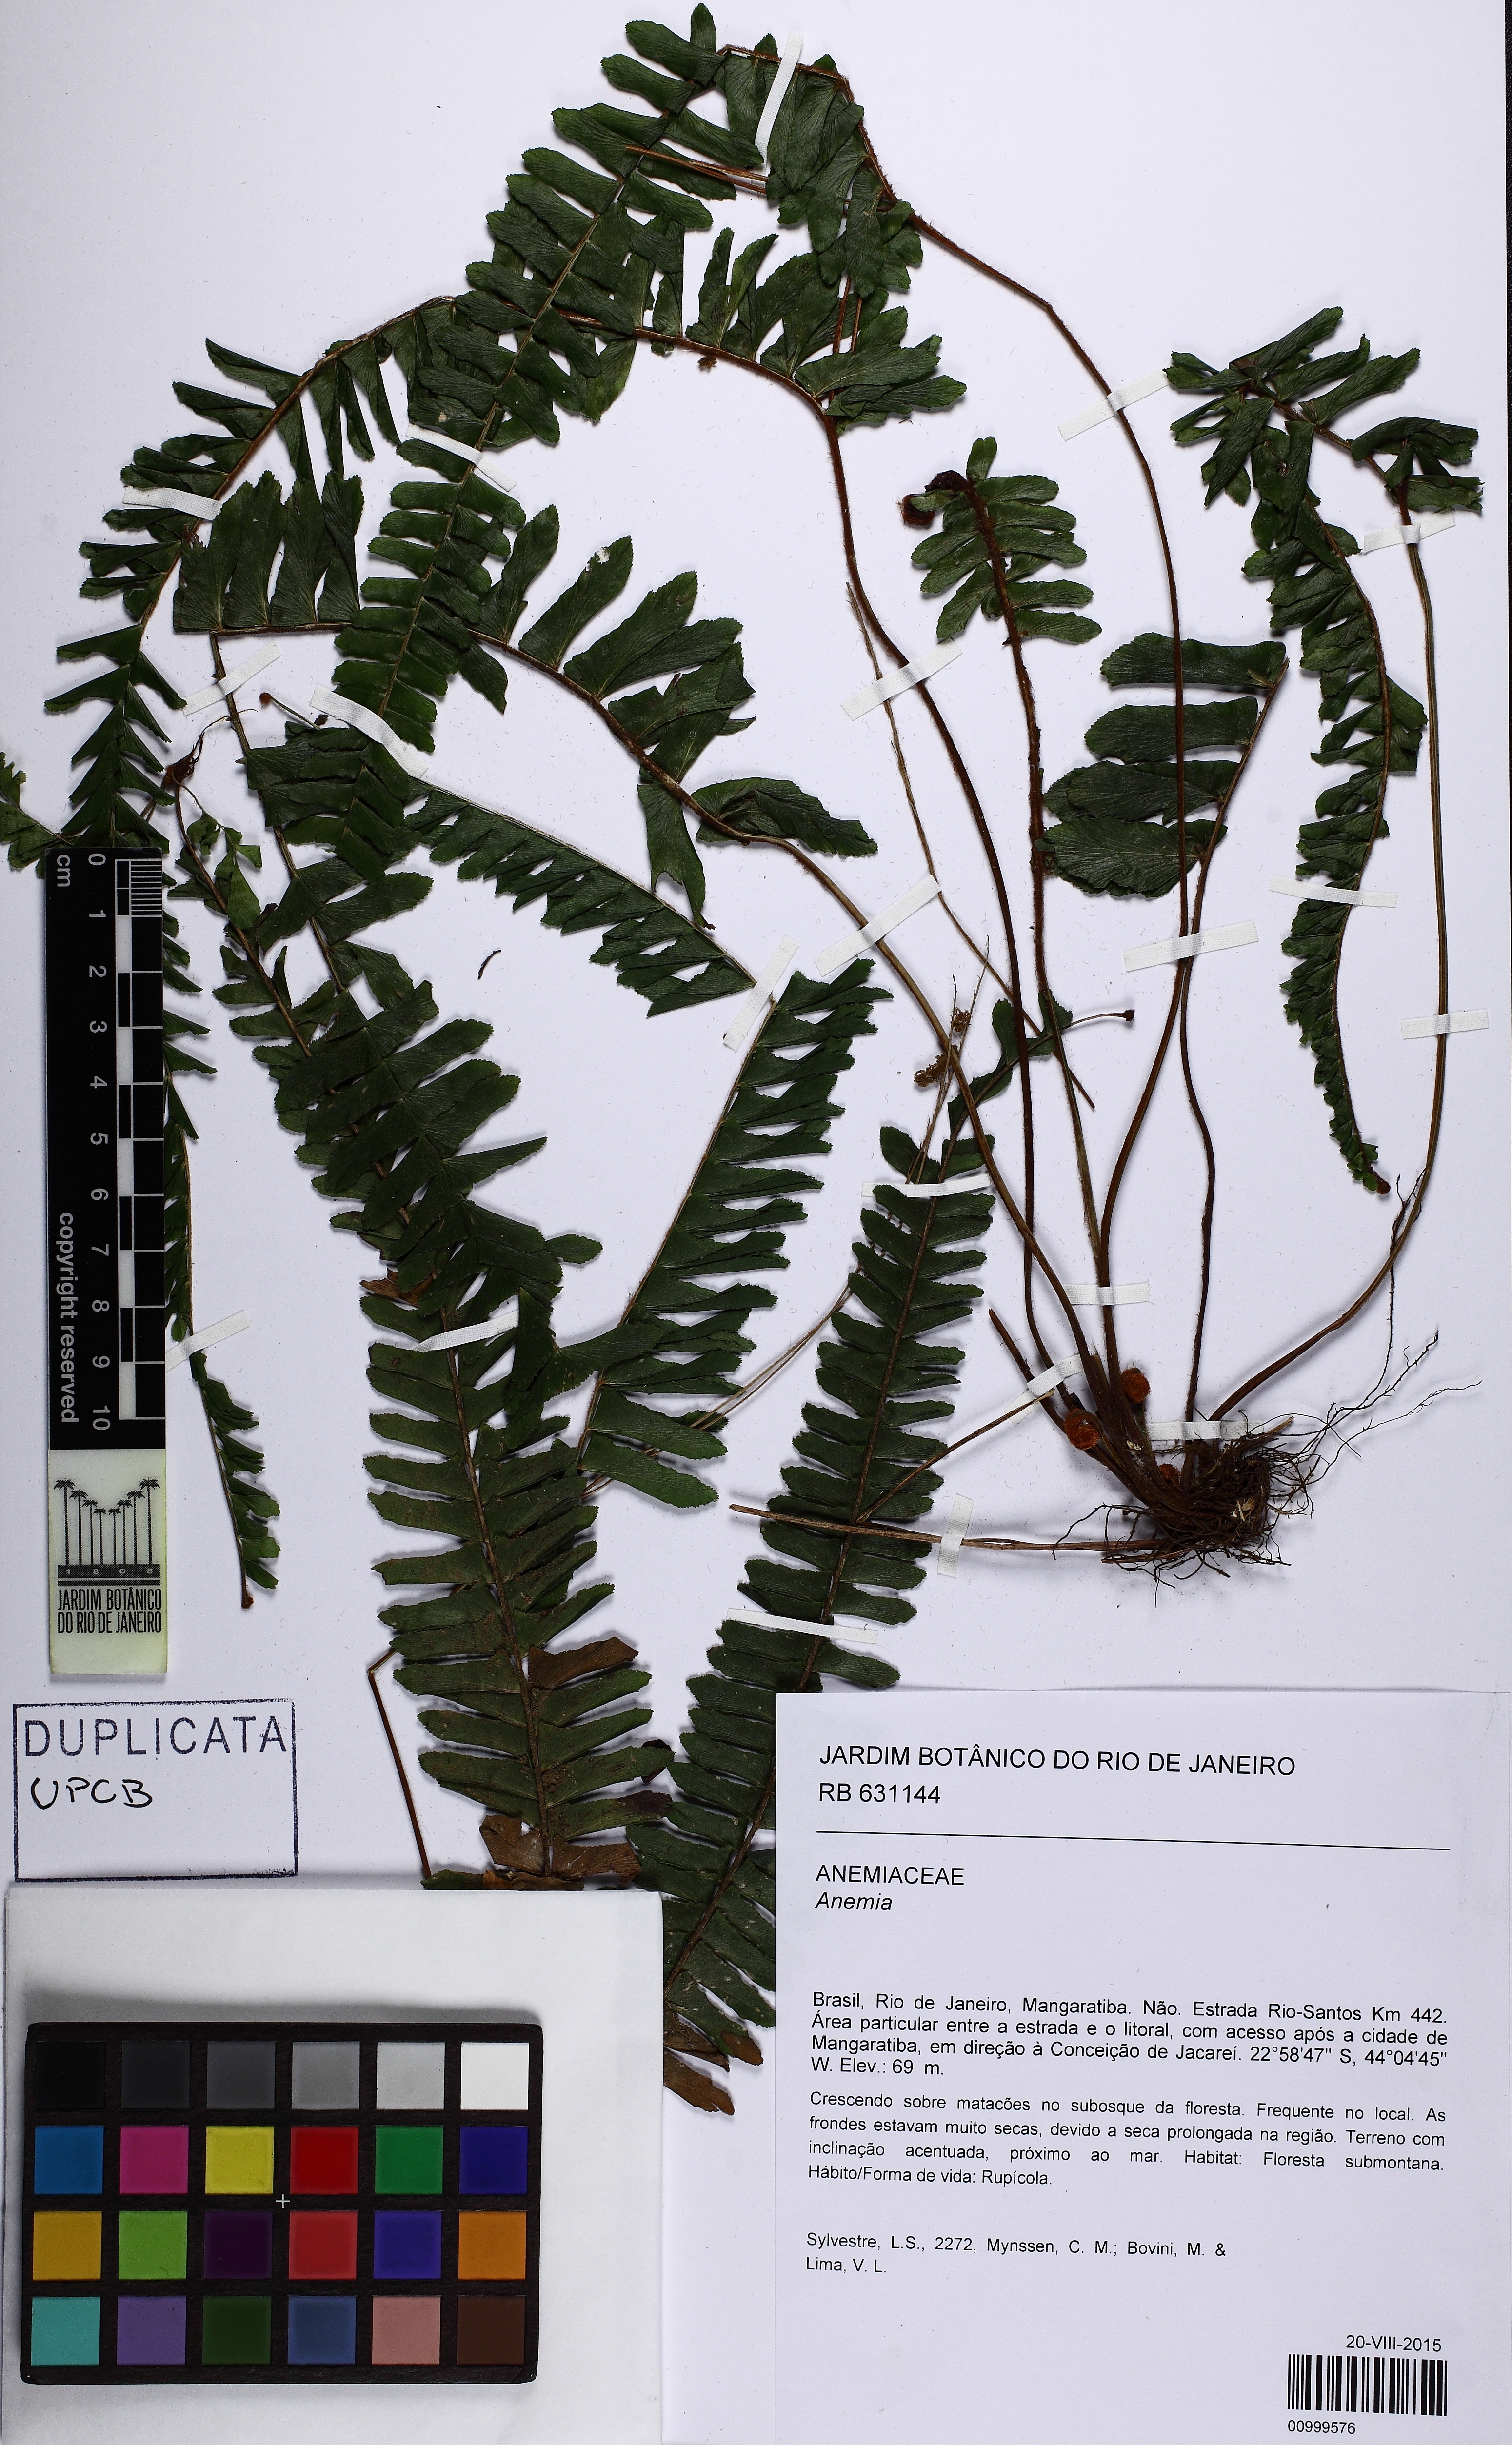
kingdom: Plantae
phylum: Tracheophyta
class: Polypodiopsida
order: Schizaeales
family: Anemiaceae
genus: Anemia
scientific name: Anemia mandiocana
